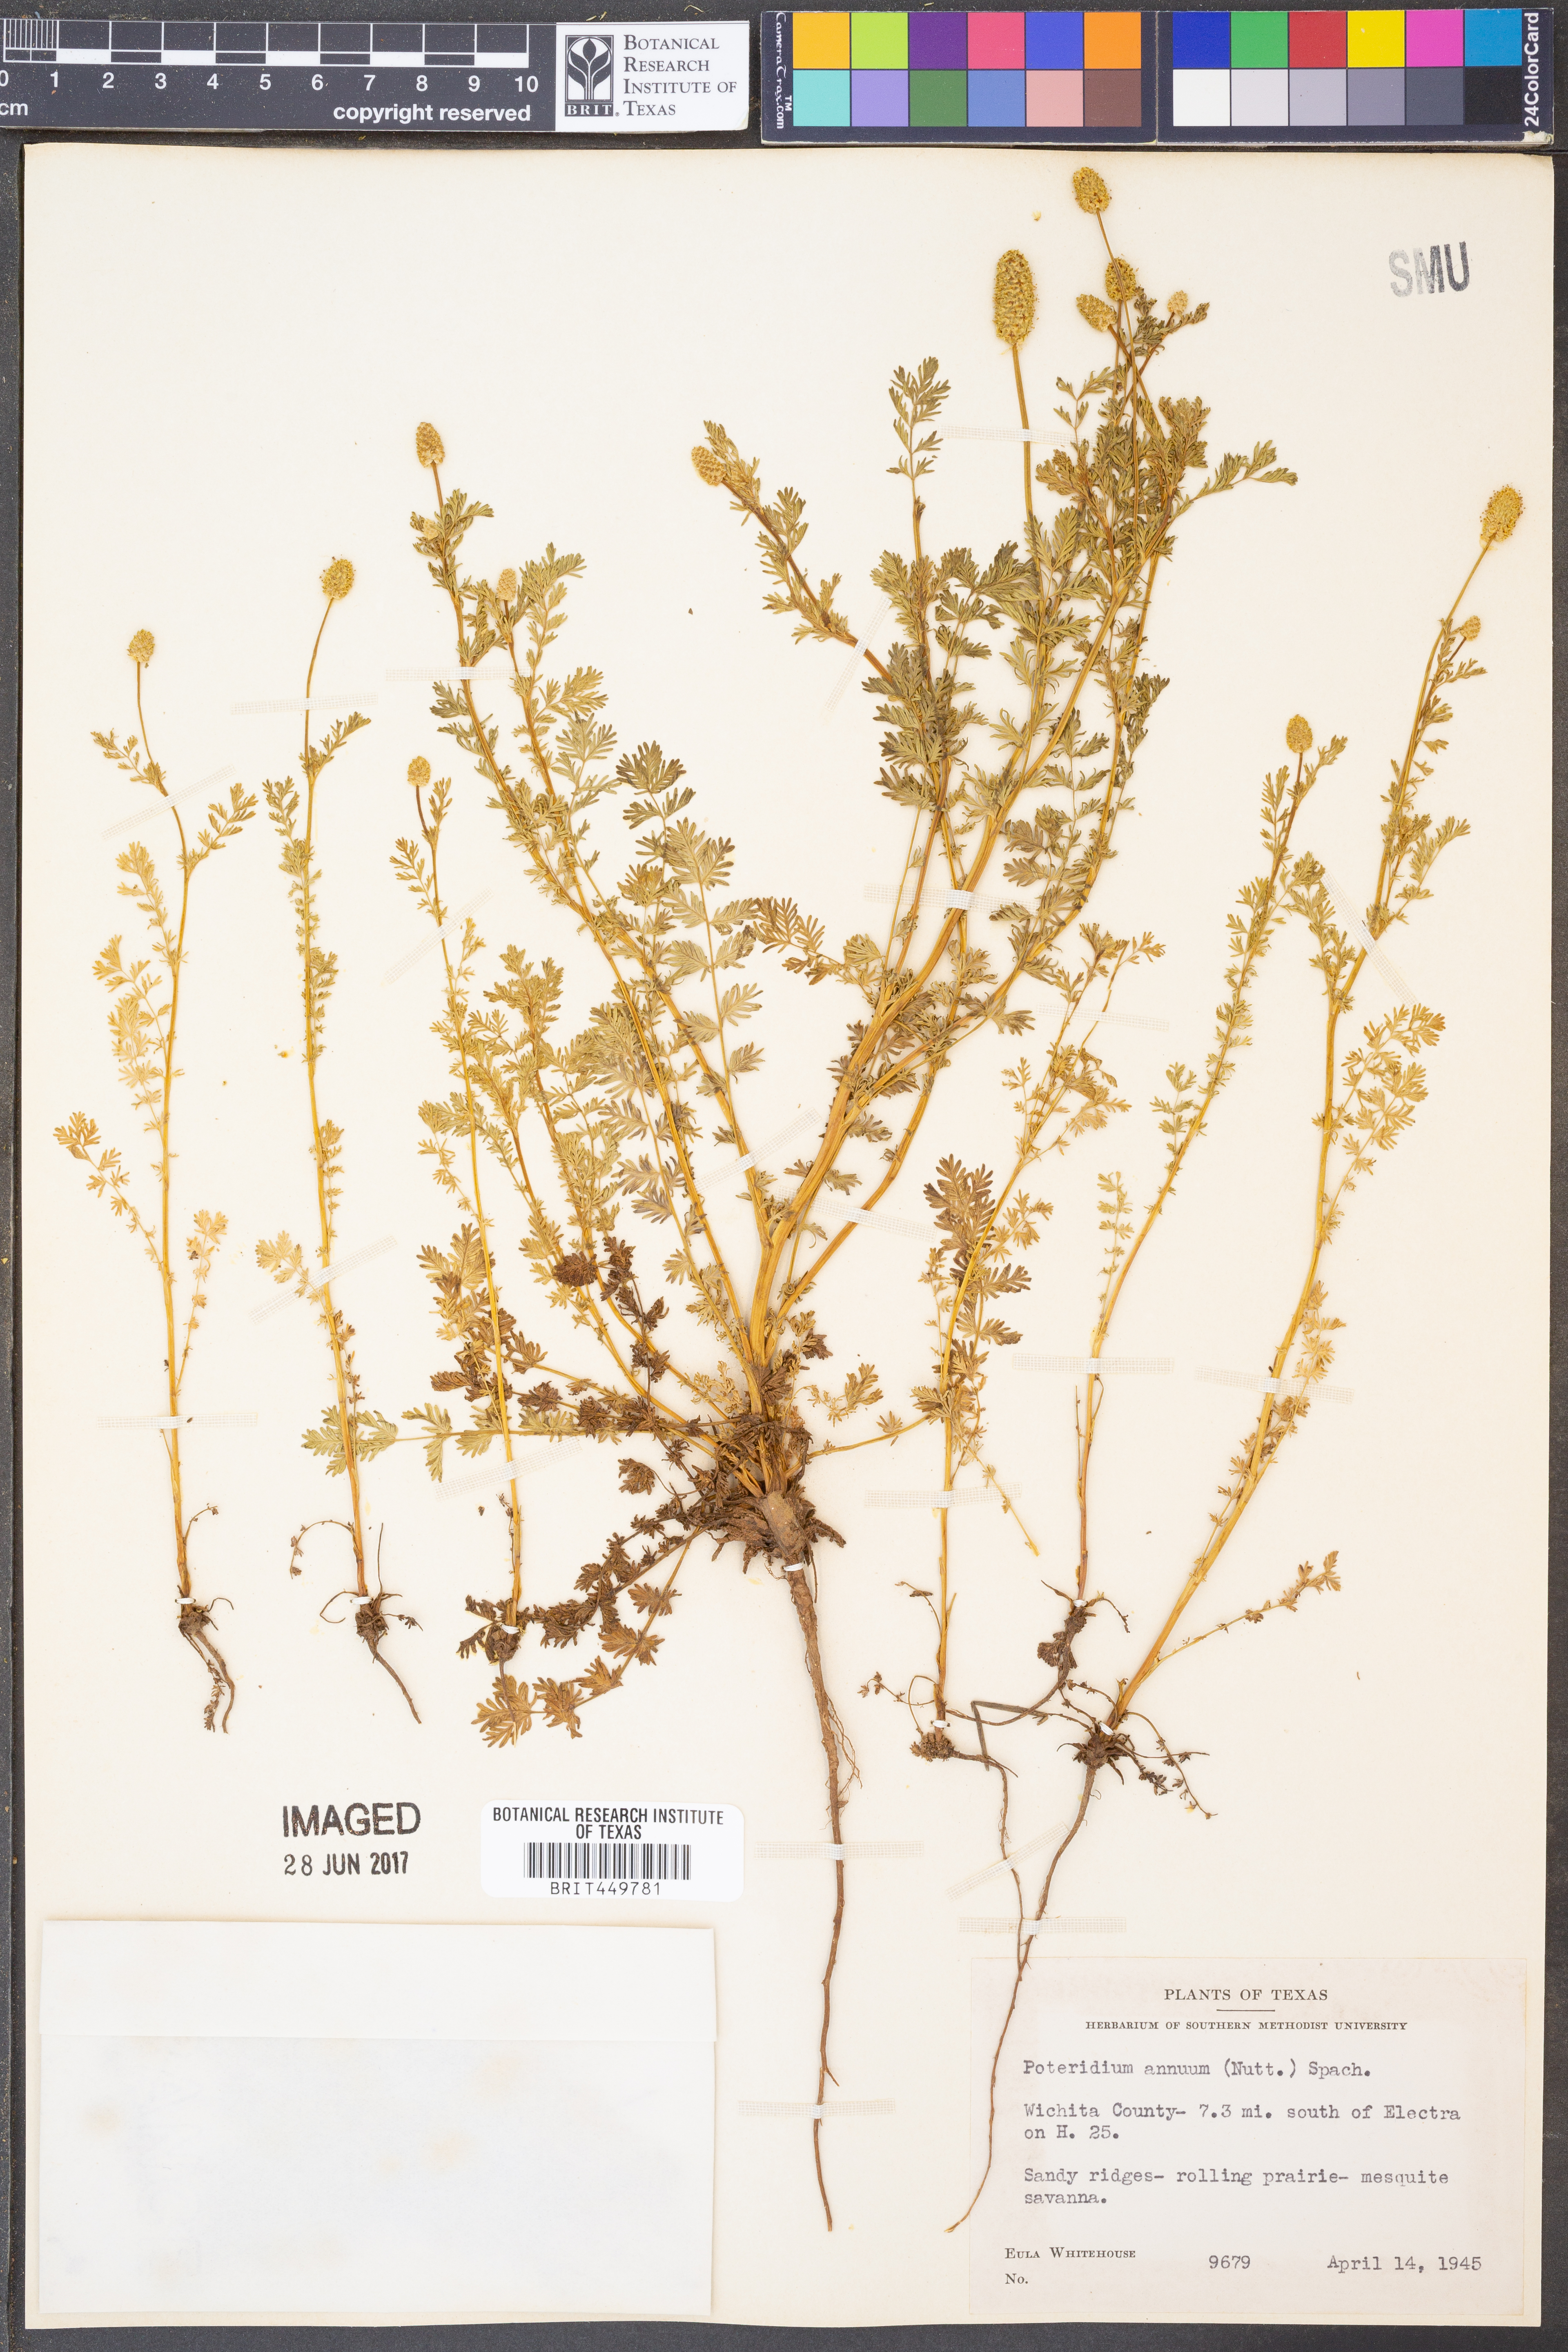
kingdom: Plantae
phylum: Tracheophyta
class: Magnoliopsida
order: Rosales
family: Rosaceae
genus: Poteridium
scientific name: Poteridium annuum
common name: Annual burnet
